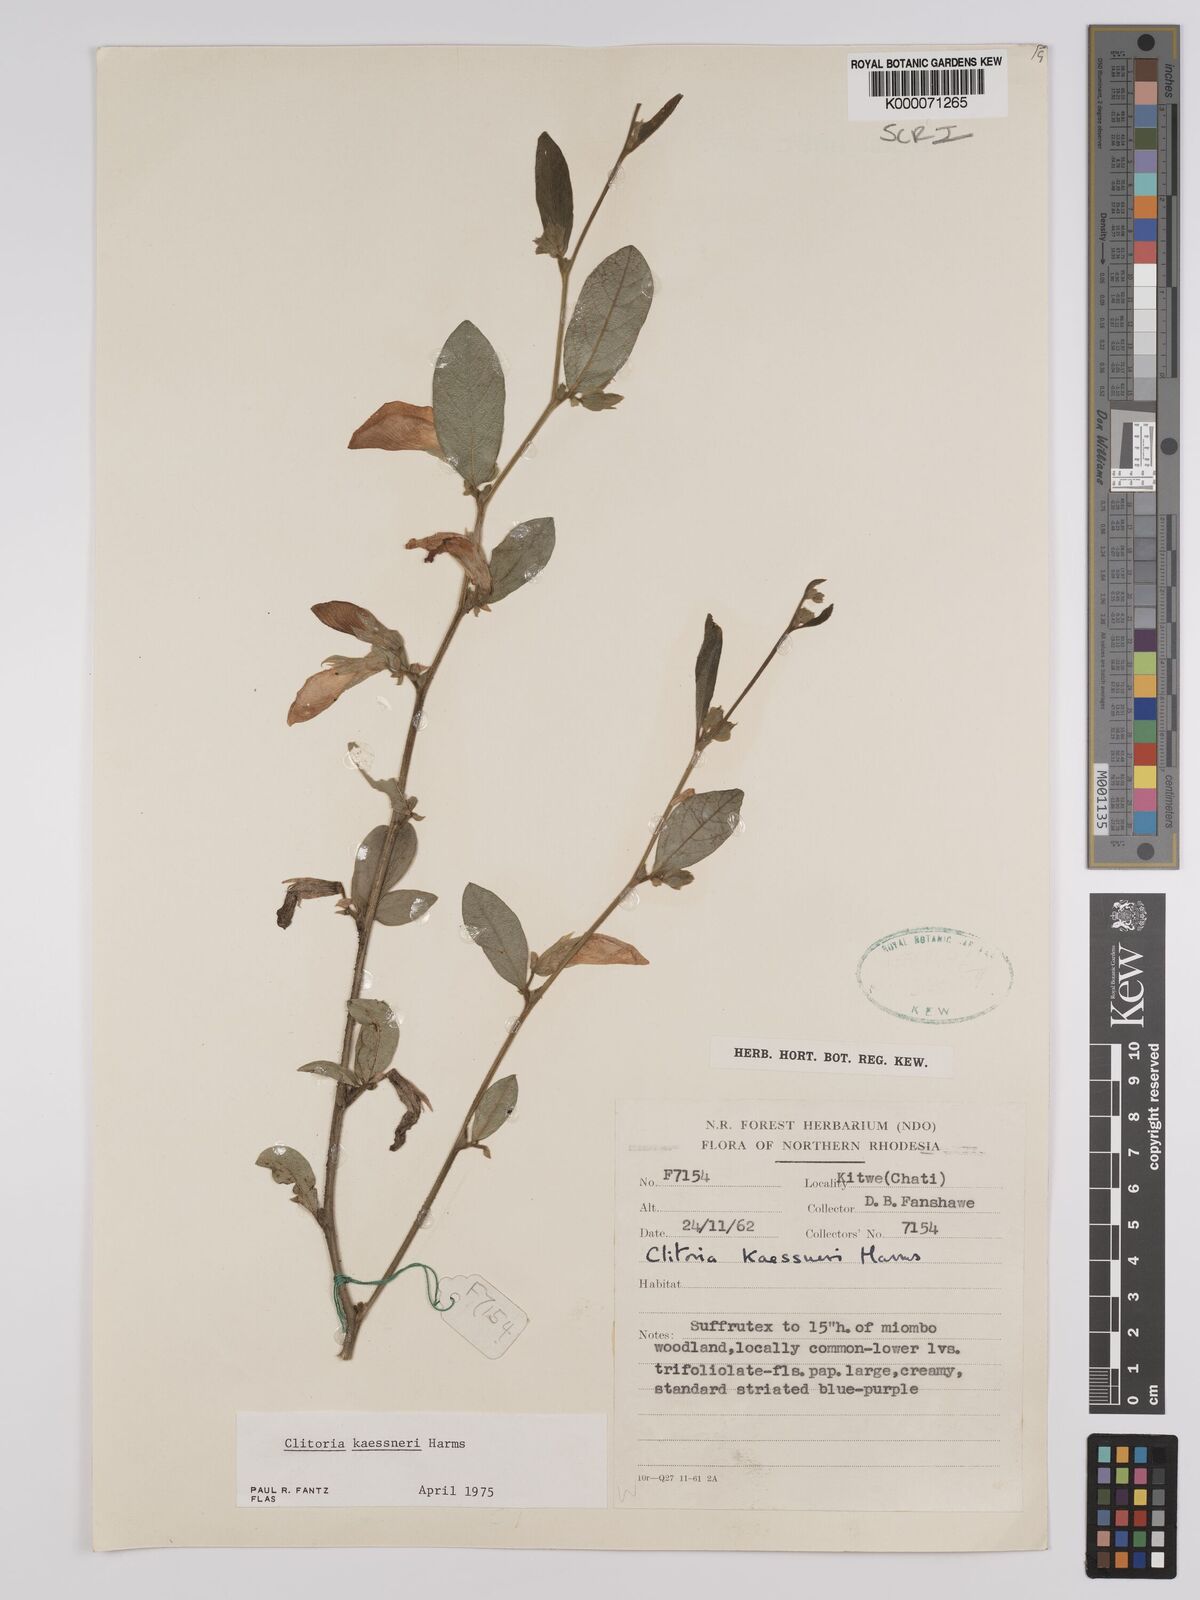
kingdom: Plantae
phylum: Tracheophyta
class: Magnoliopsida
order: Fabales
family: Fabaceae
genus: Clitoria
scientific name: Clitoria kaessneri
